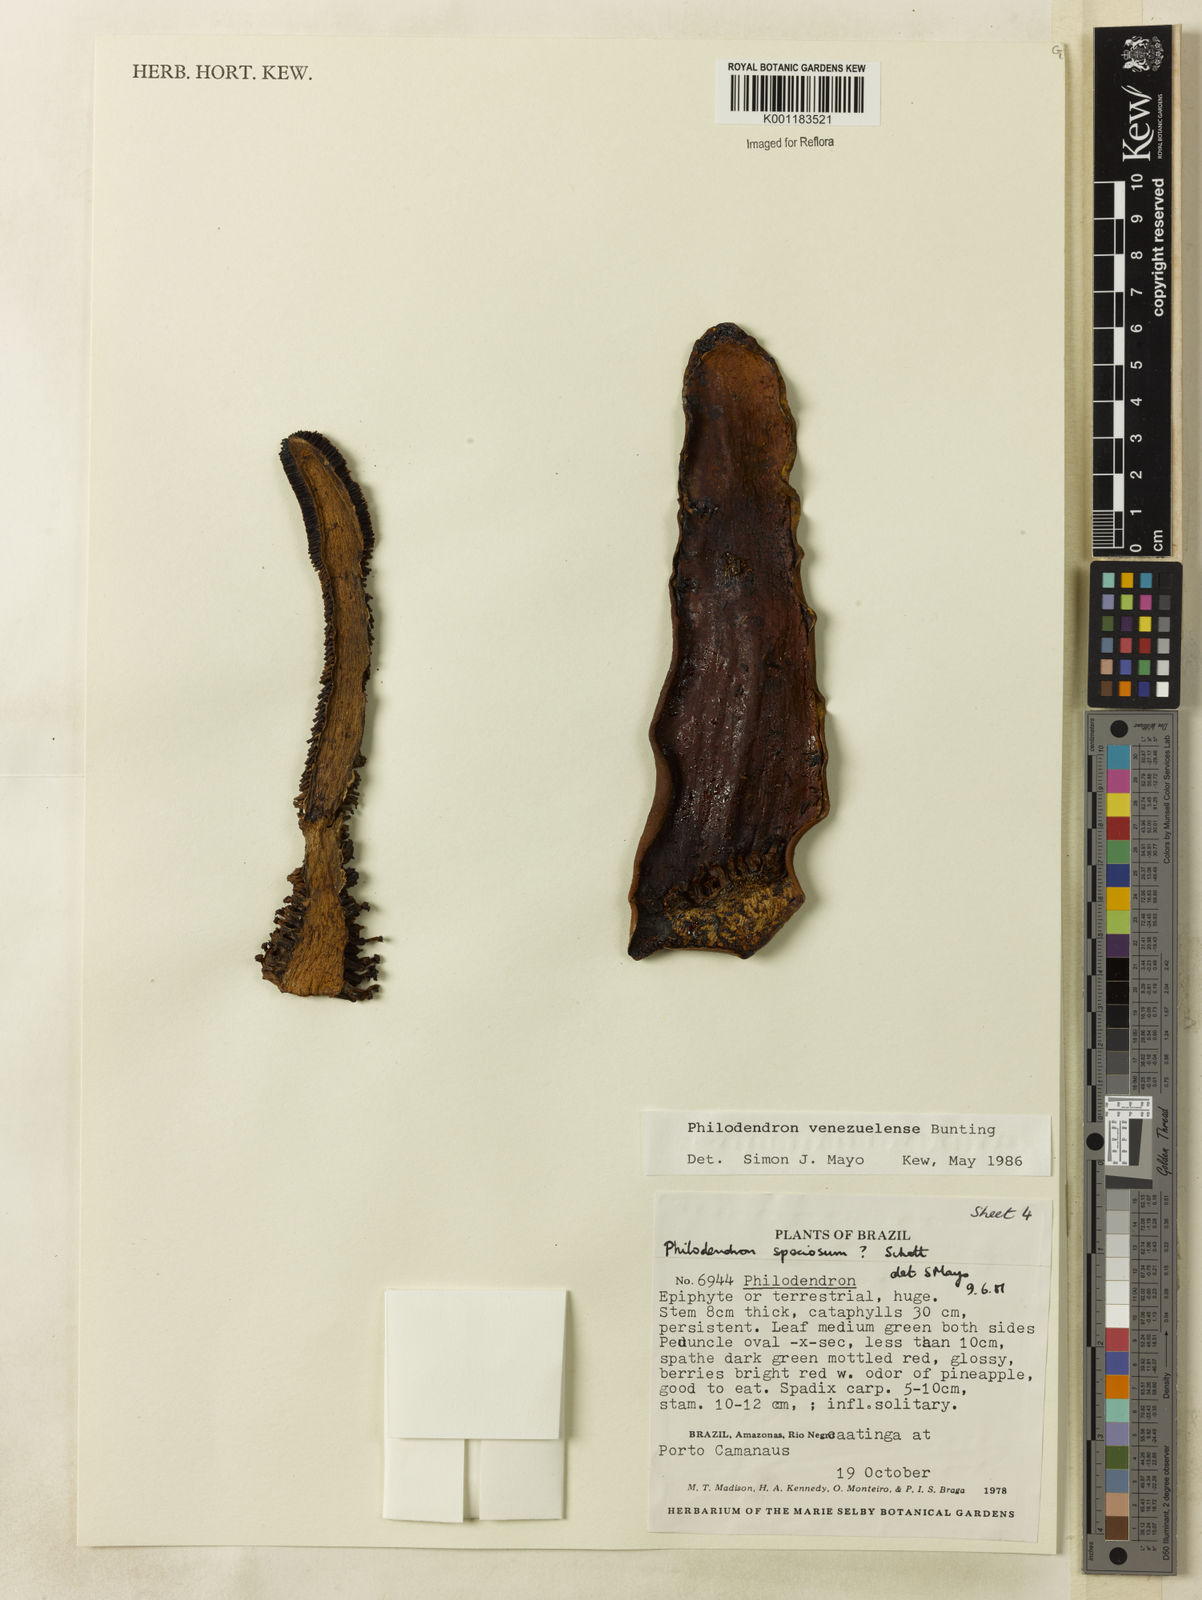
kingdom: Plantae
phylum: Tracheophyta
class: Liliopsida
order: Alismatales
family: Araceae
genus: Thaumatophyllum
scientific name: Thaumatophyllum venezuelense
